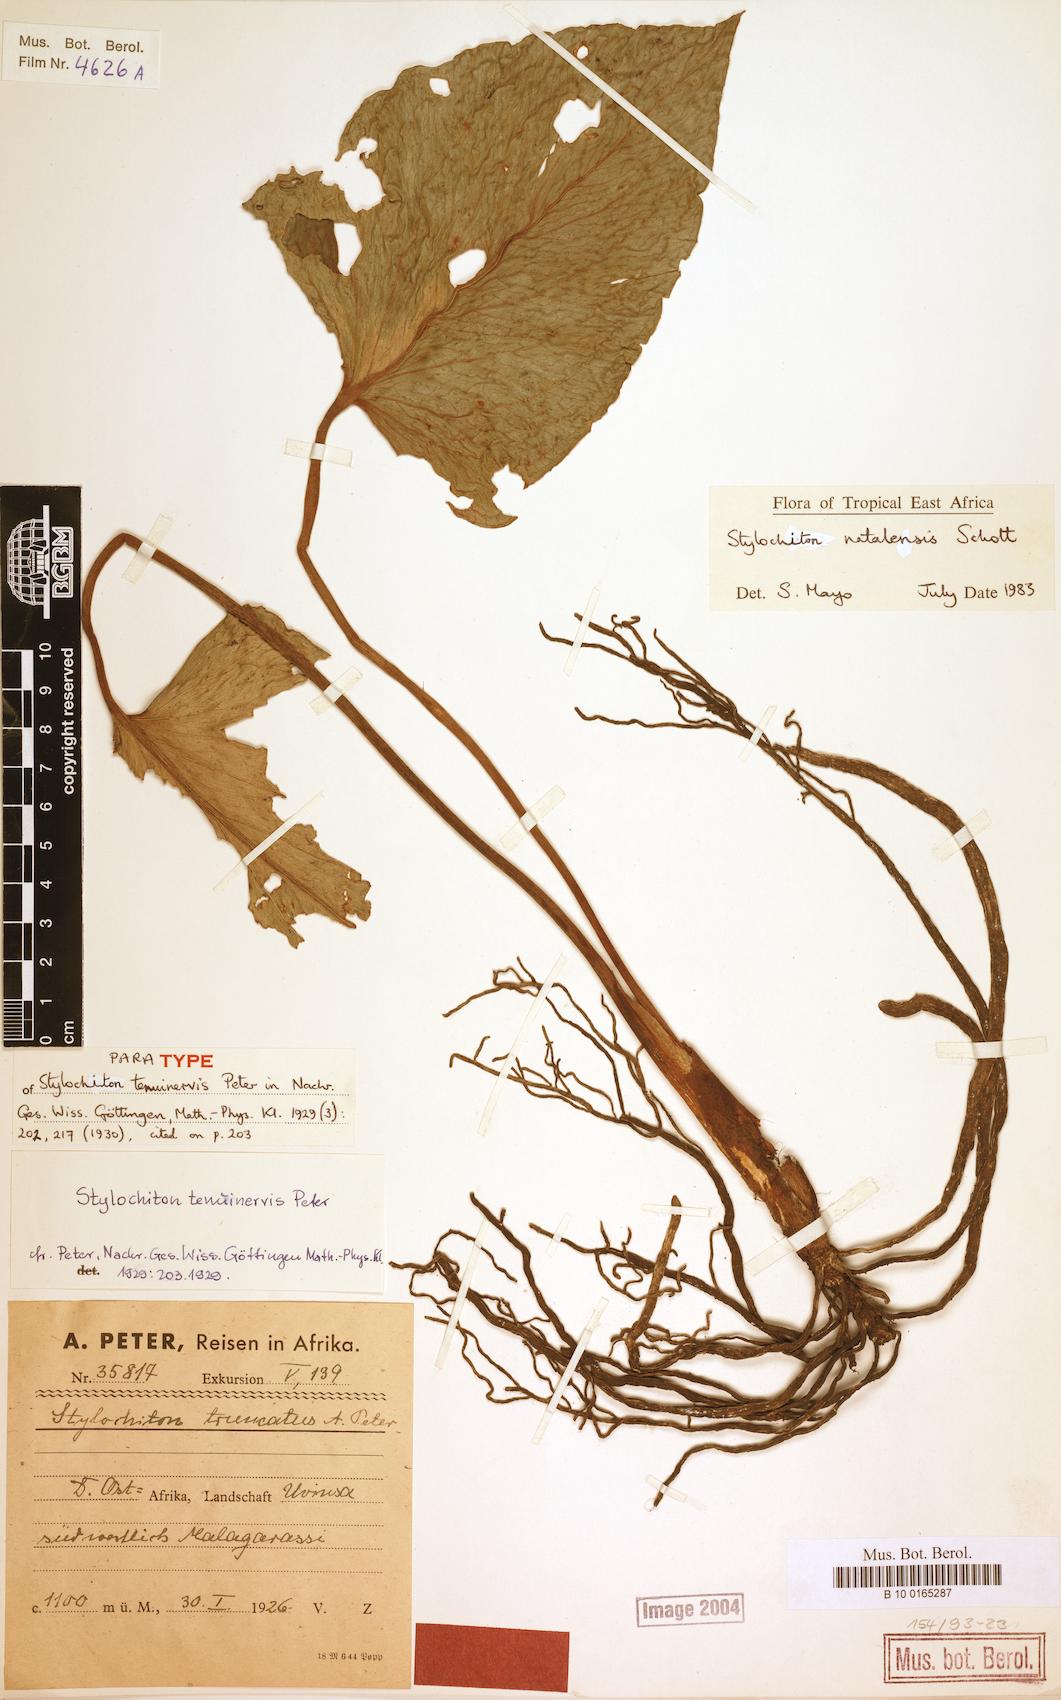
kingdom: Plantae
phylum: Tracheophyta
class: Liliopsida
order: Alismatales
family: Araceae
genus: Stylochiton
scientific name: Stylochiton natalensis
